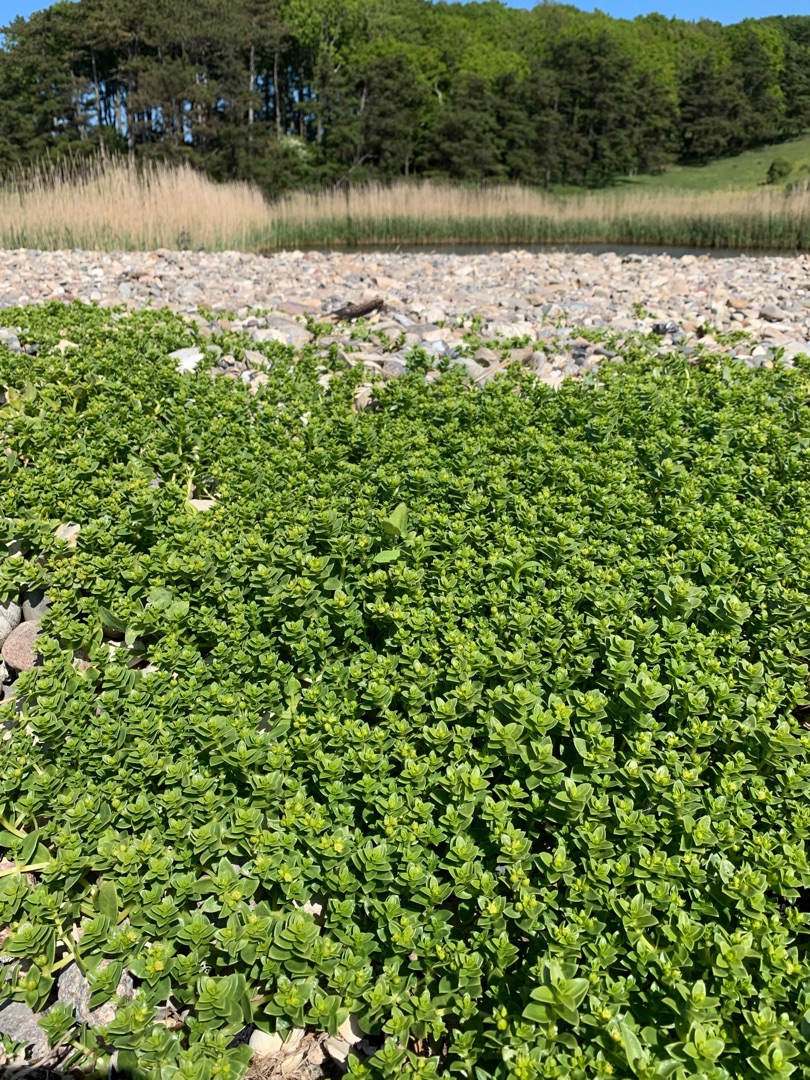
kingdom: Plantae
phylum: Tracheophyta
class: Magnoliopsida
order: Caryophyllales
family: Caryophyllaceae
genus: Honckenya
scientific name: Honckenya peploides
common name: Strandarve
